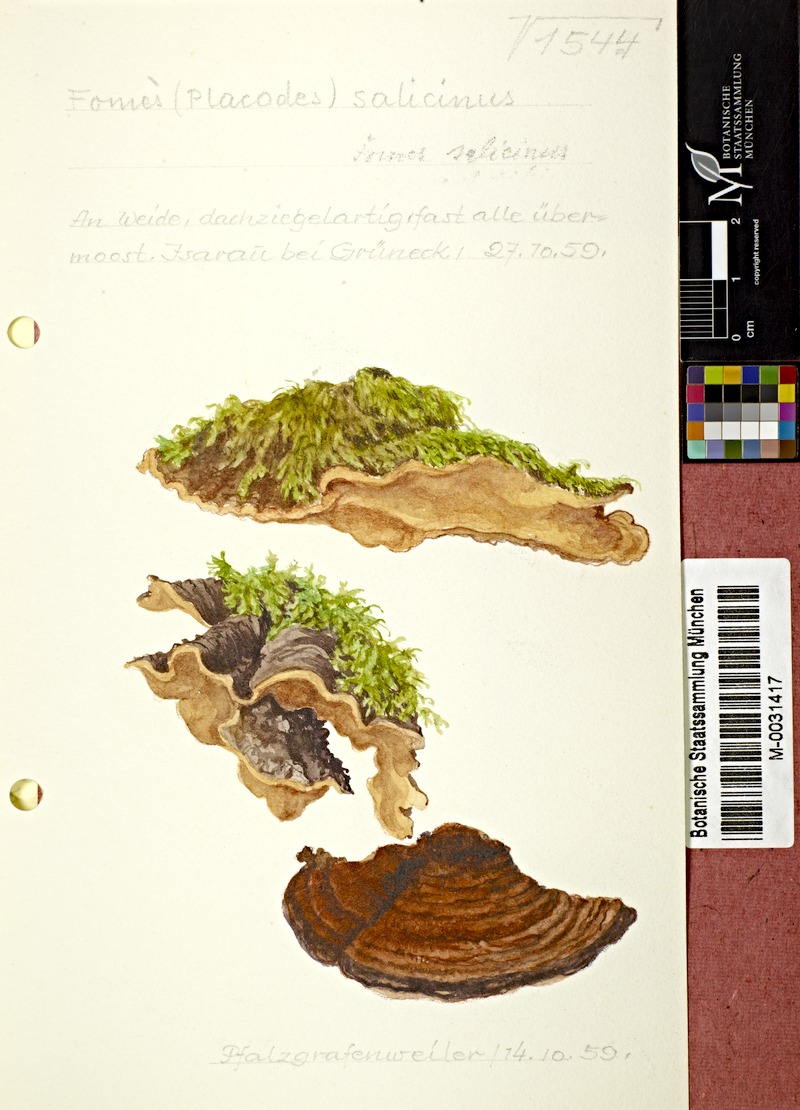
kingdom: Fungi
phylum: Basidiomycota
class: Agaricomycetes
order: Hymenochaetales
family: Hymenochaetaceae
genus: Phellinopsis
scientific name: Phellinopsis conchata
